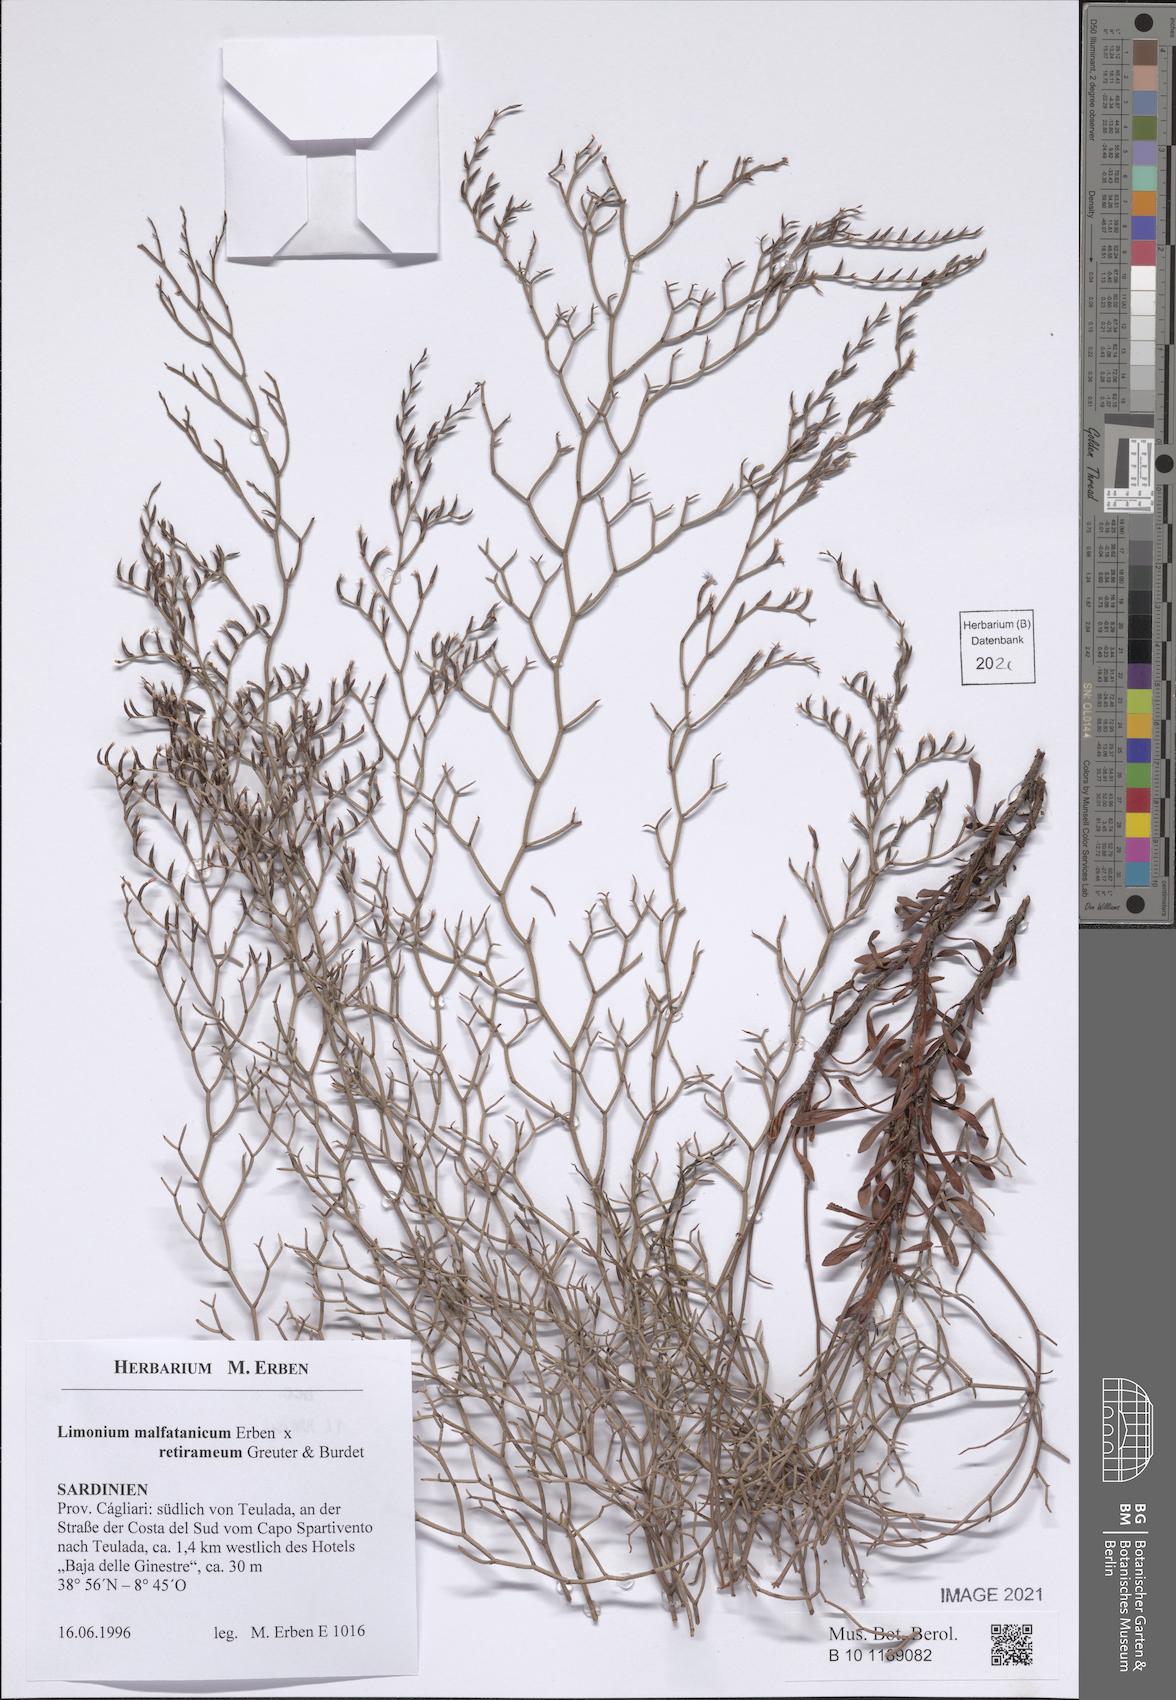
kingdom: Plantae
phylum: Tracheophyta
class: Magnoliopsida
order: Caryophyllales
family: Plumbaginaceae
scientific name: Plumbaginaceae
